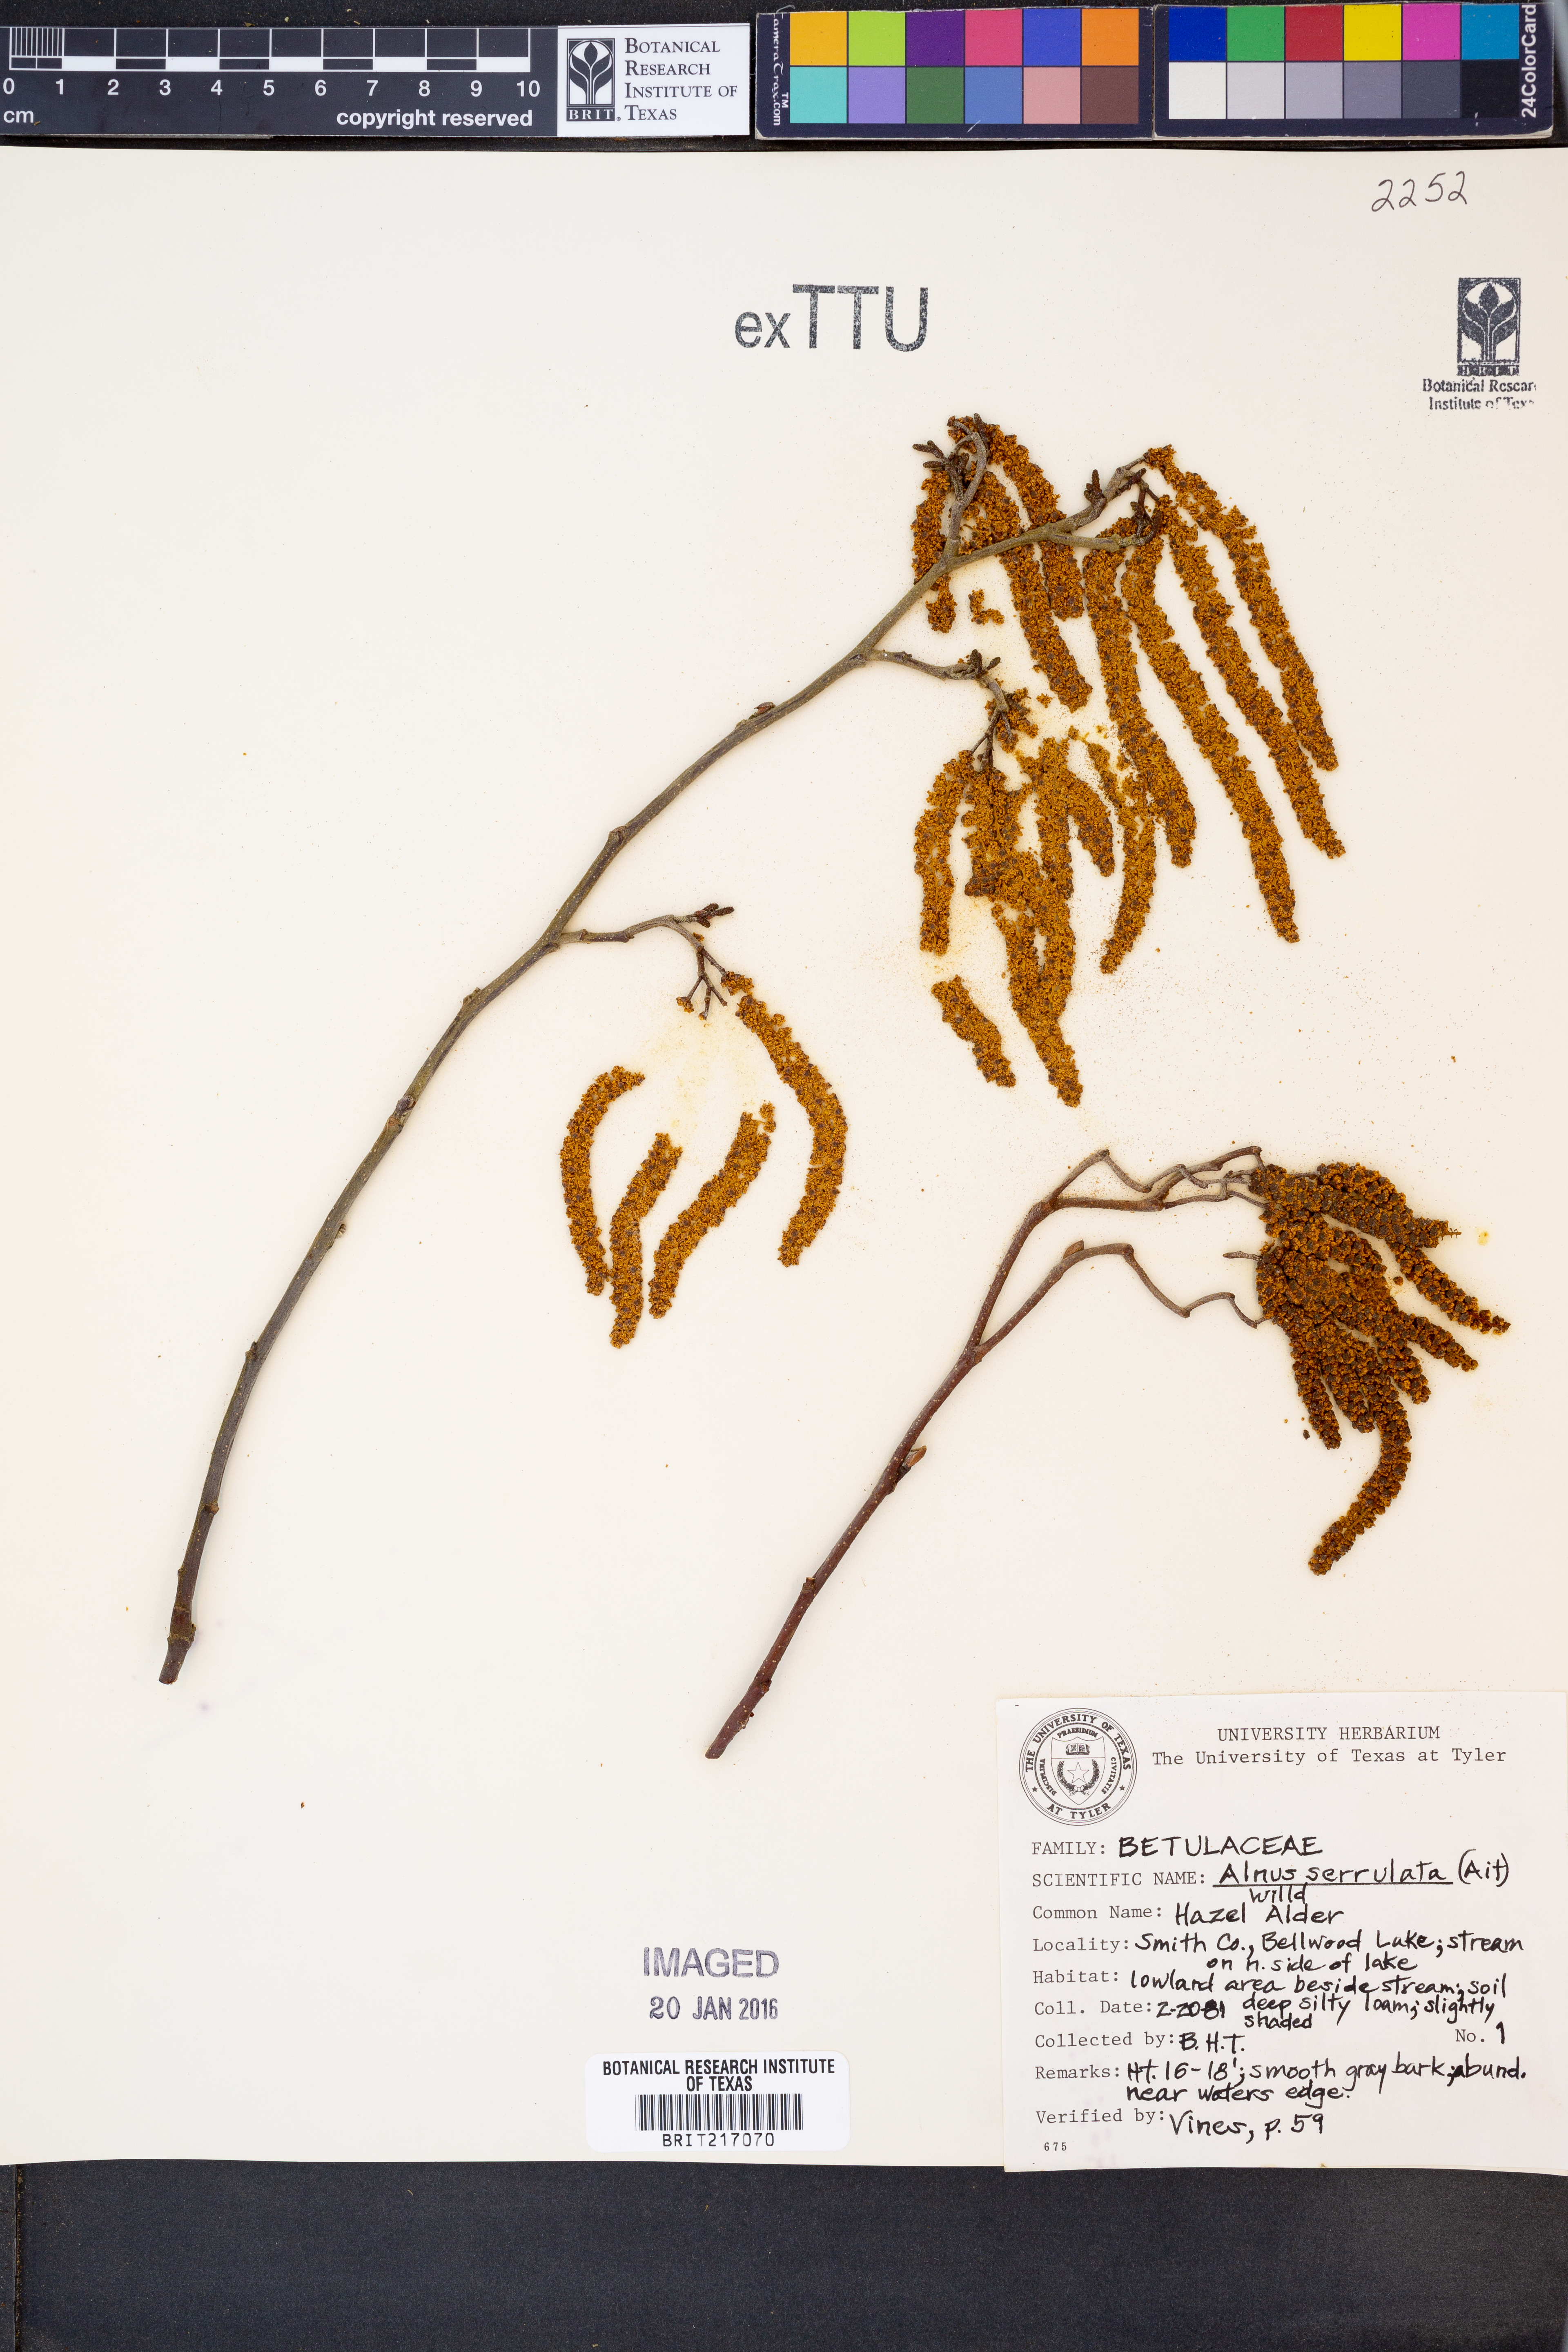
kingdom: Plantae
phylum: Tracheophyta
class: Magnoliopsida
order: Fagales
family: Betulaceae
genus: Alnus
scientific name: Alnus serrulata
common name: Hazel alder
